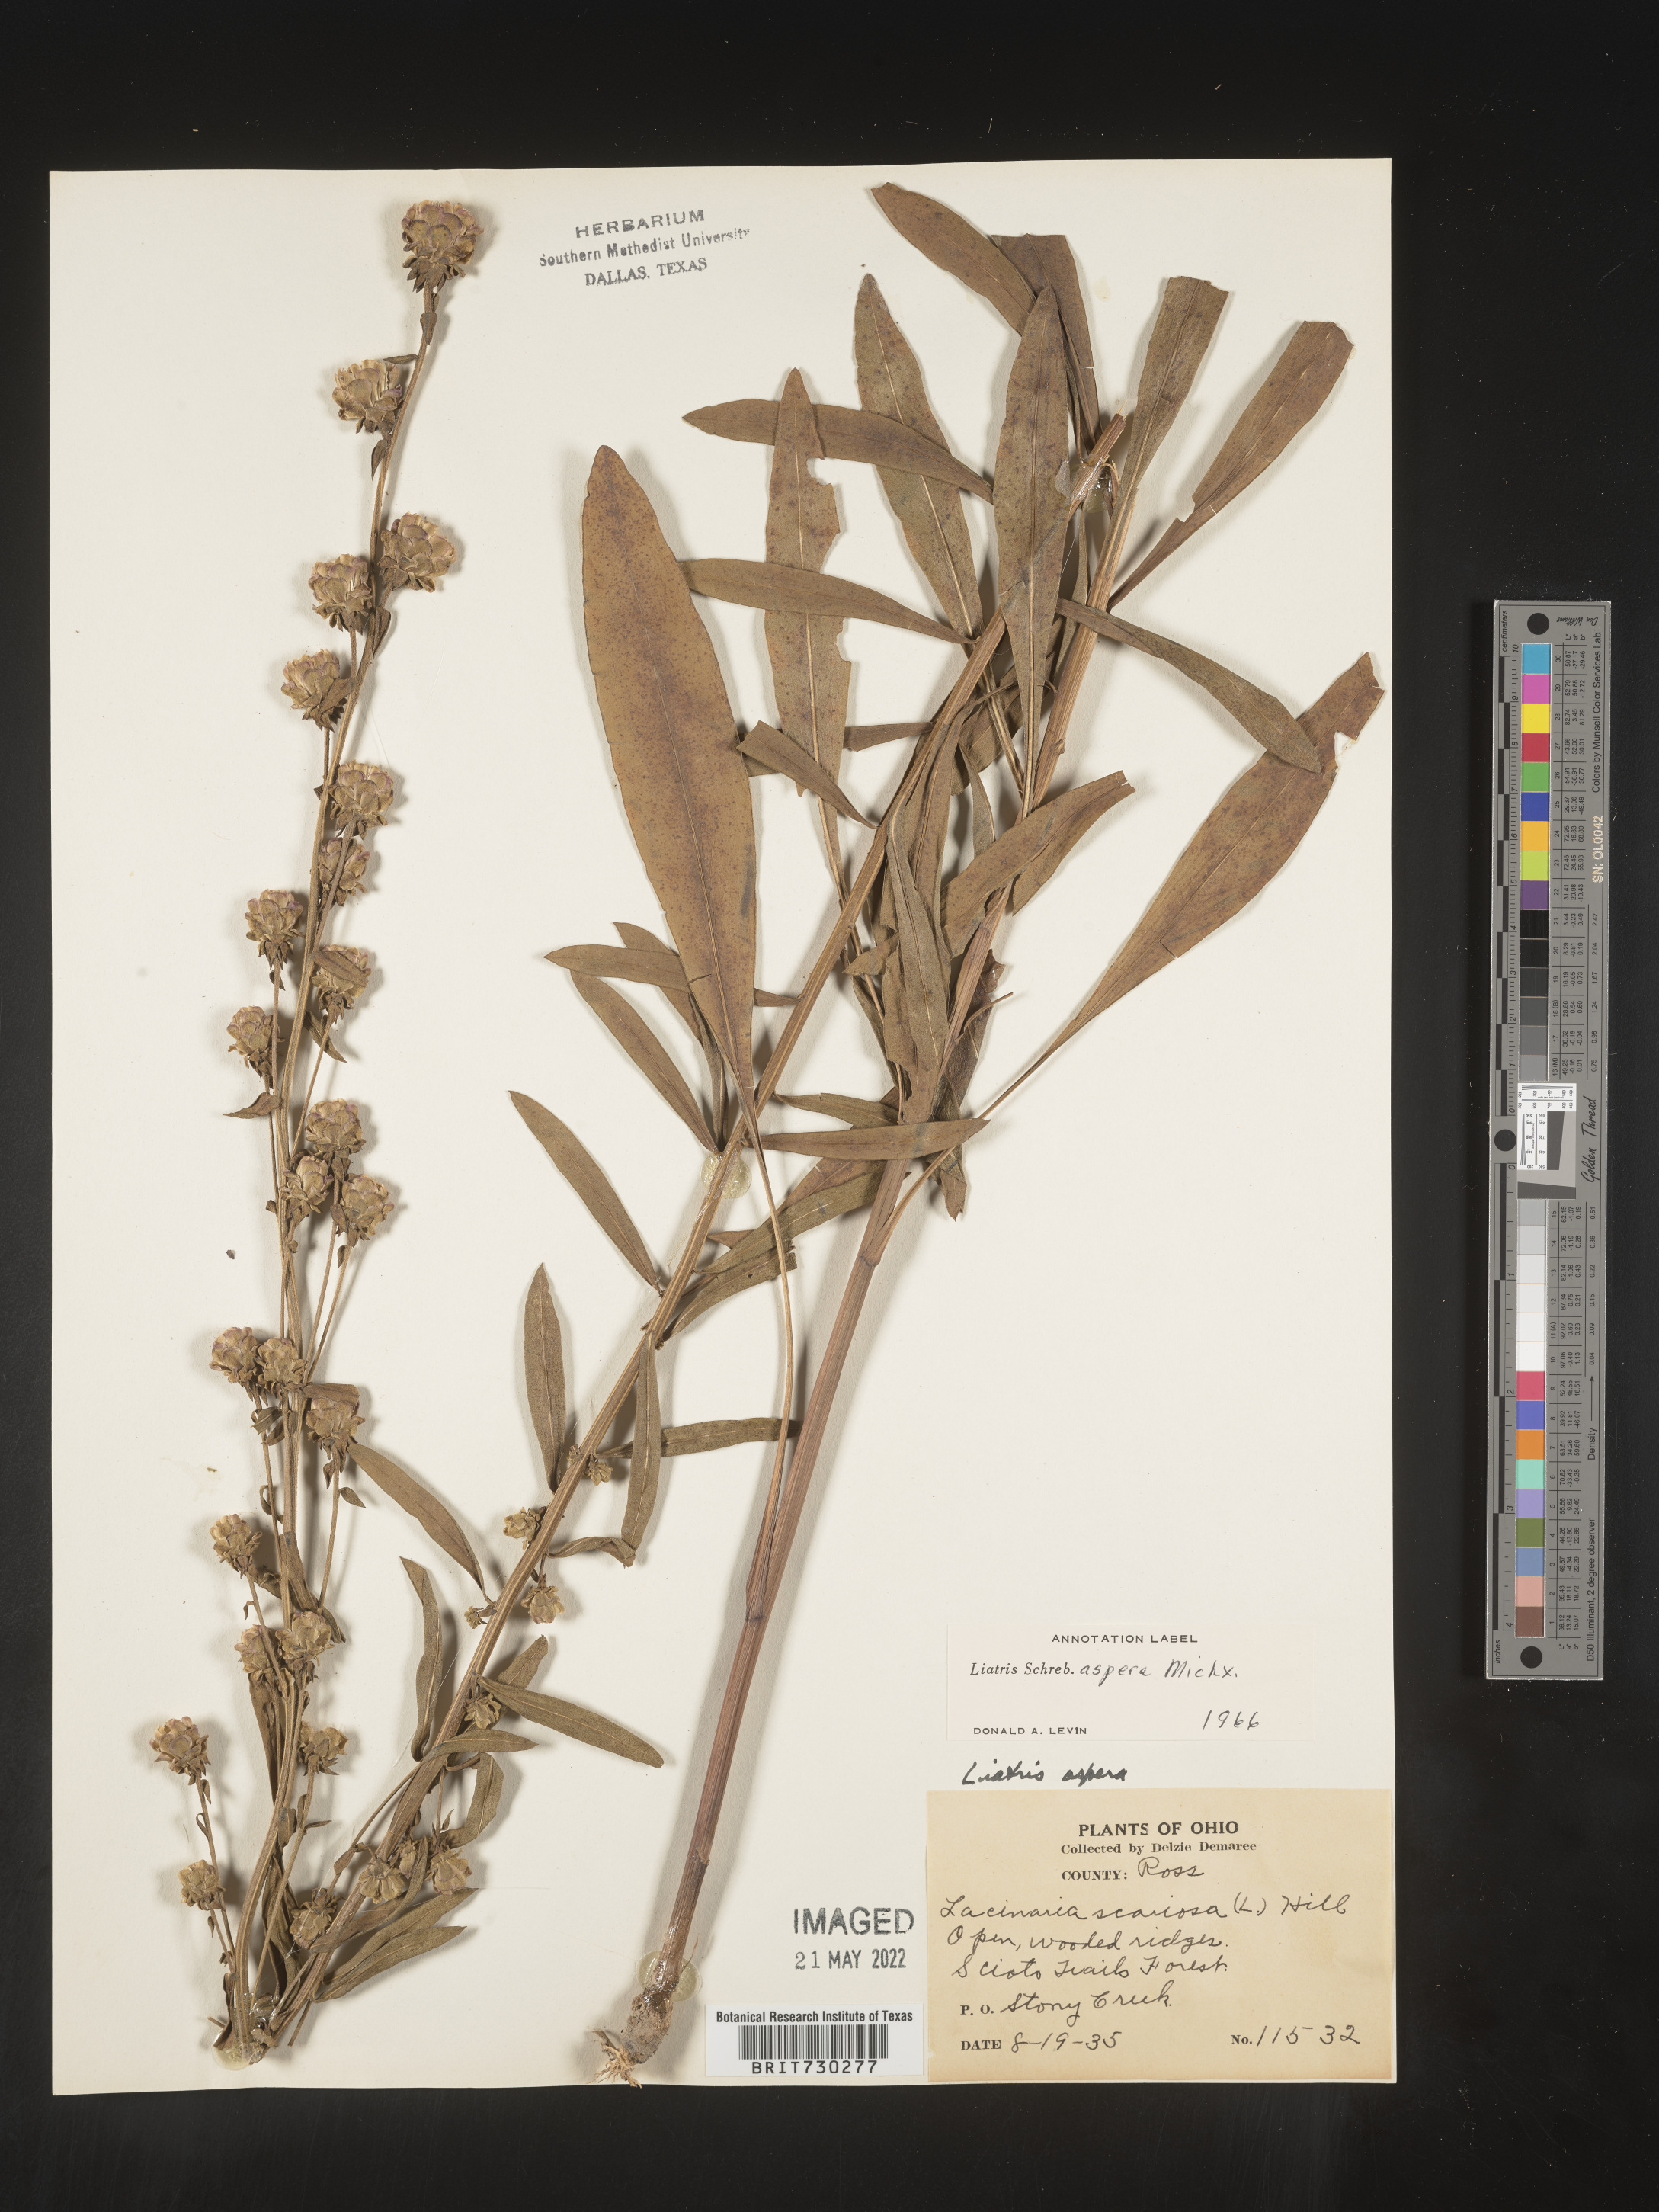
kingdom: Plantae
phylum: Tracheophyta
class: Magnoliopsida
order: Asterales
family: Asteraceae
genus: Liatris
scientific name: Liatris aspera
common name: Lacerate blazing-star
